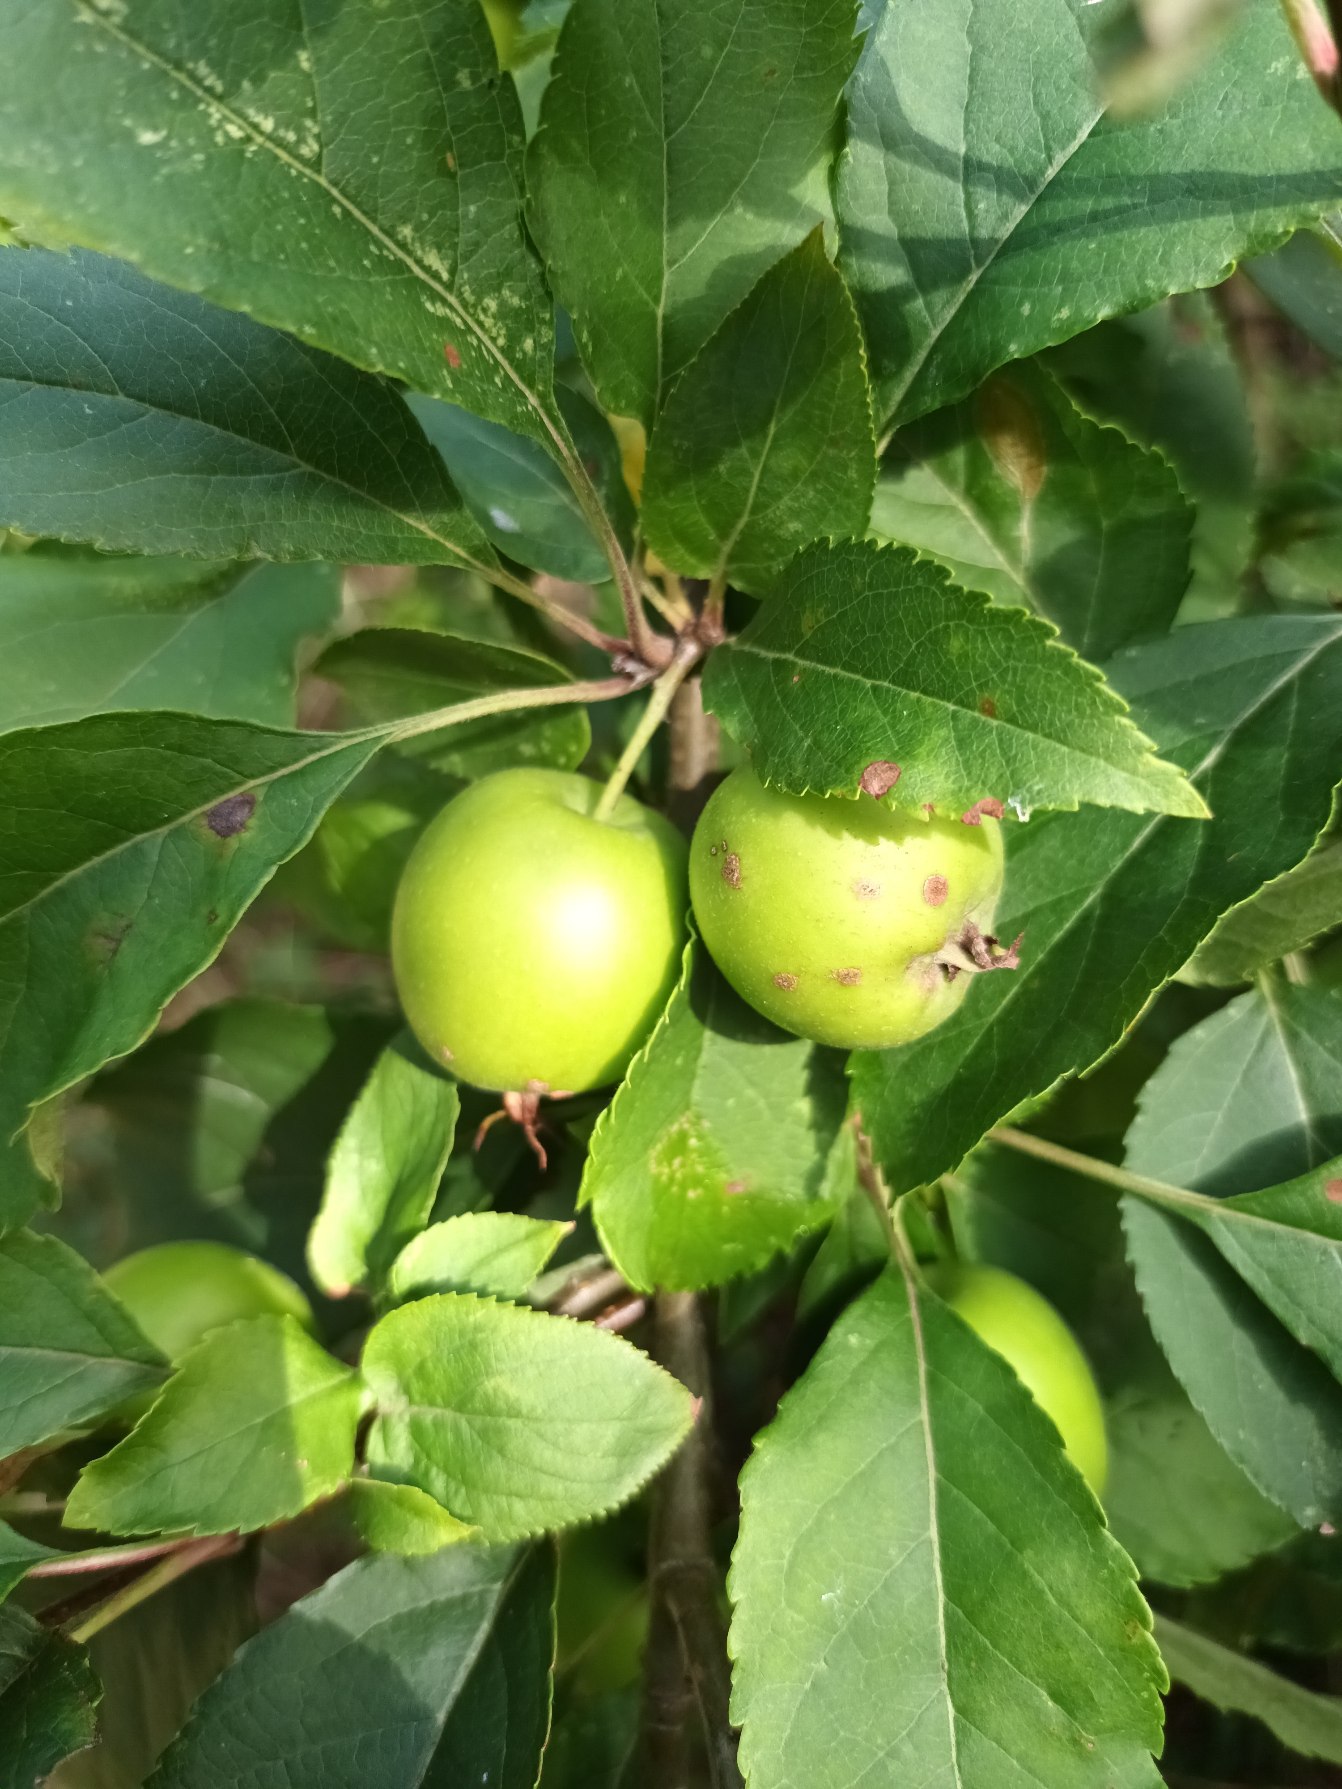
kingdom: Plantae
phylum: Tracheophyta
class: Magnoliopsida
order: Rosales
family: Rosaceae
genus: Malus
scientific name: Malus
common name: Æbleslægten
